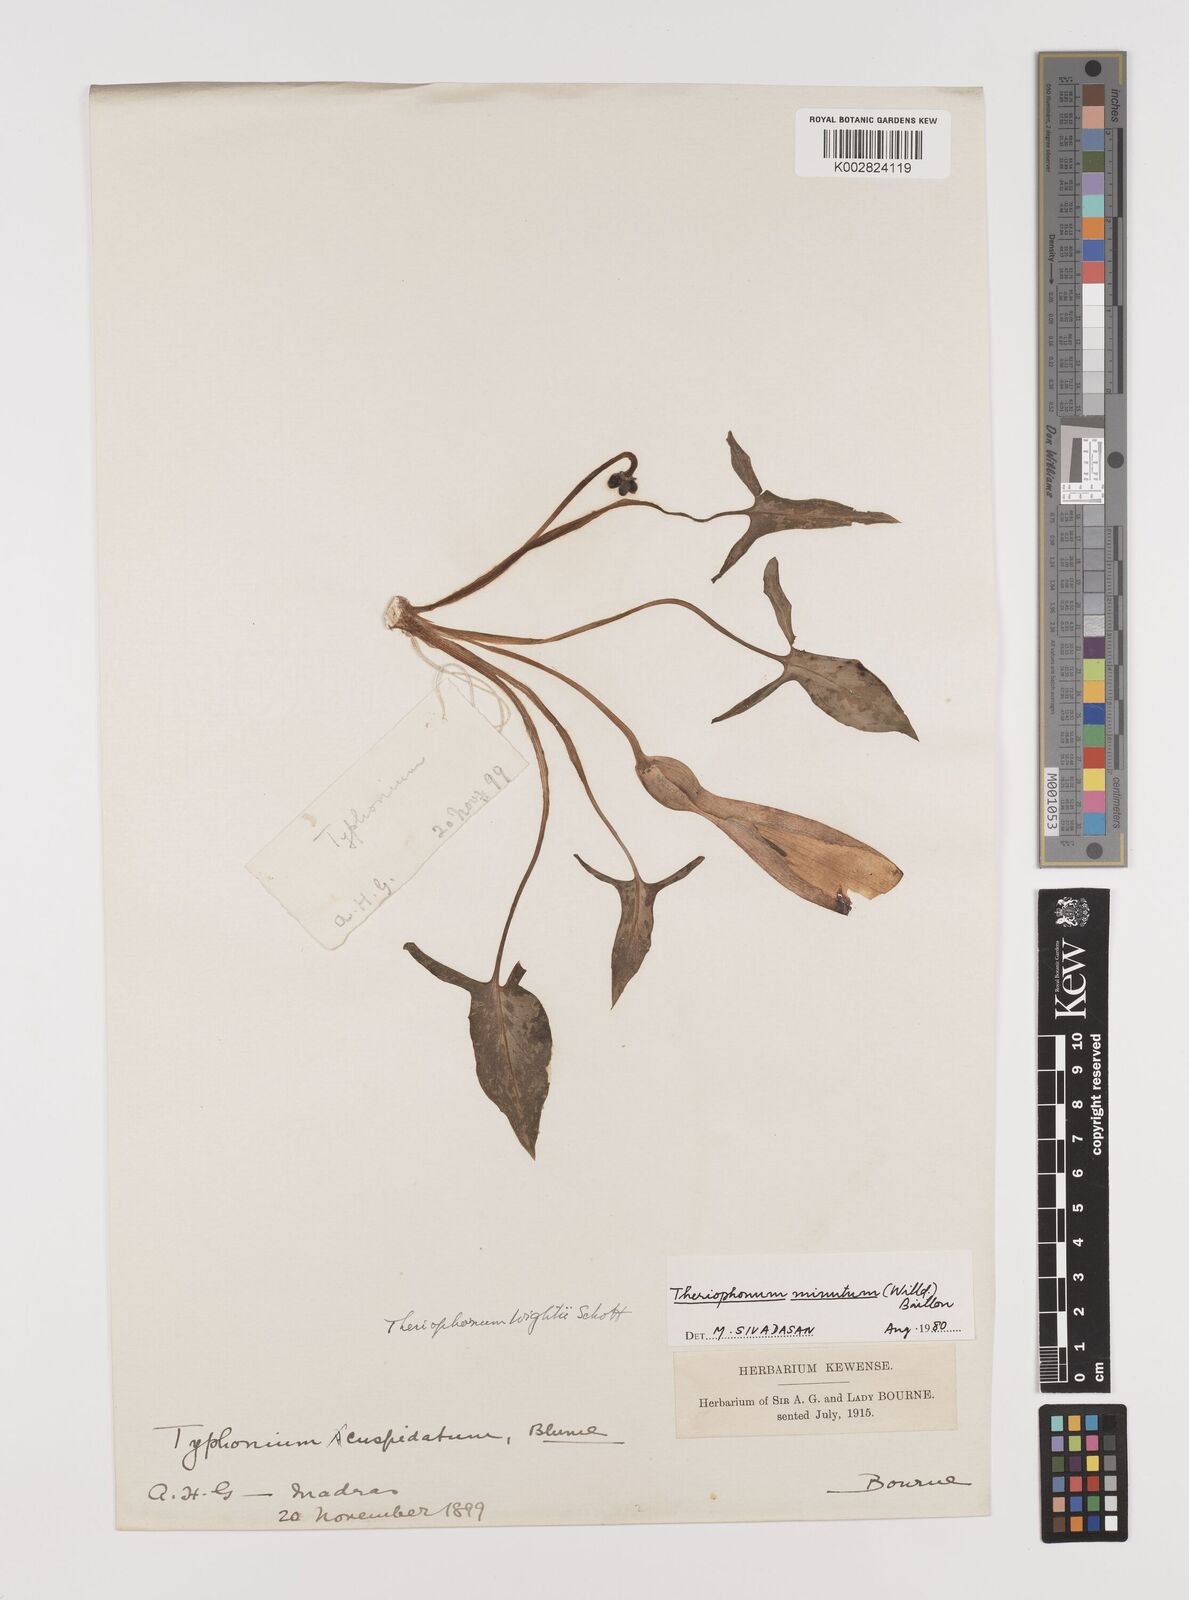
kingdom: Plantae
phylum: Tracheophyta
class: Liliopsida
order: Alismatales
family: Araceae
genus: Theriophonum
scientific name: Theriophonum minutum
